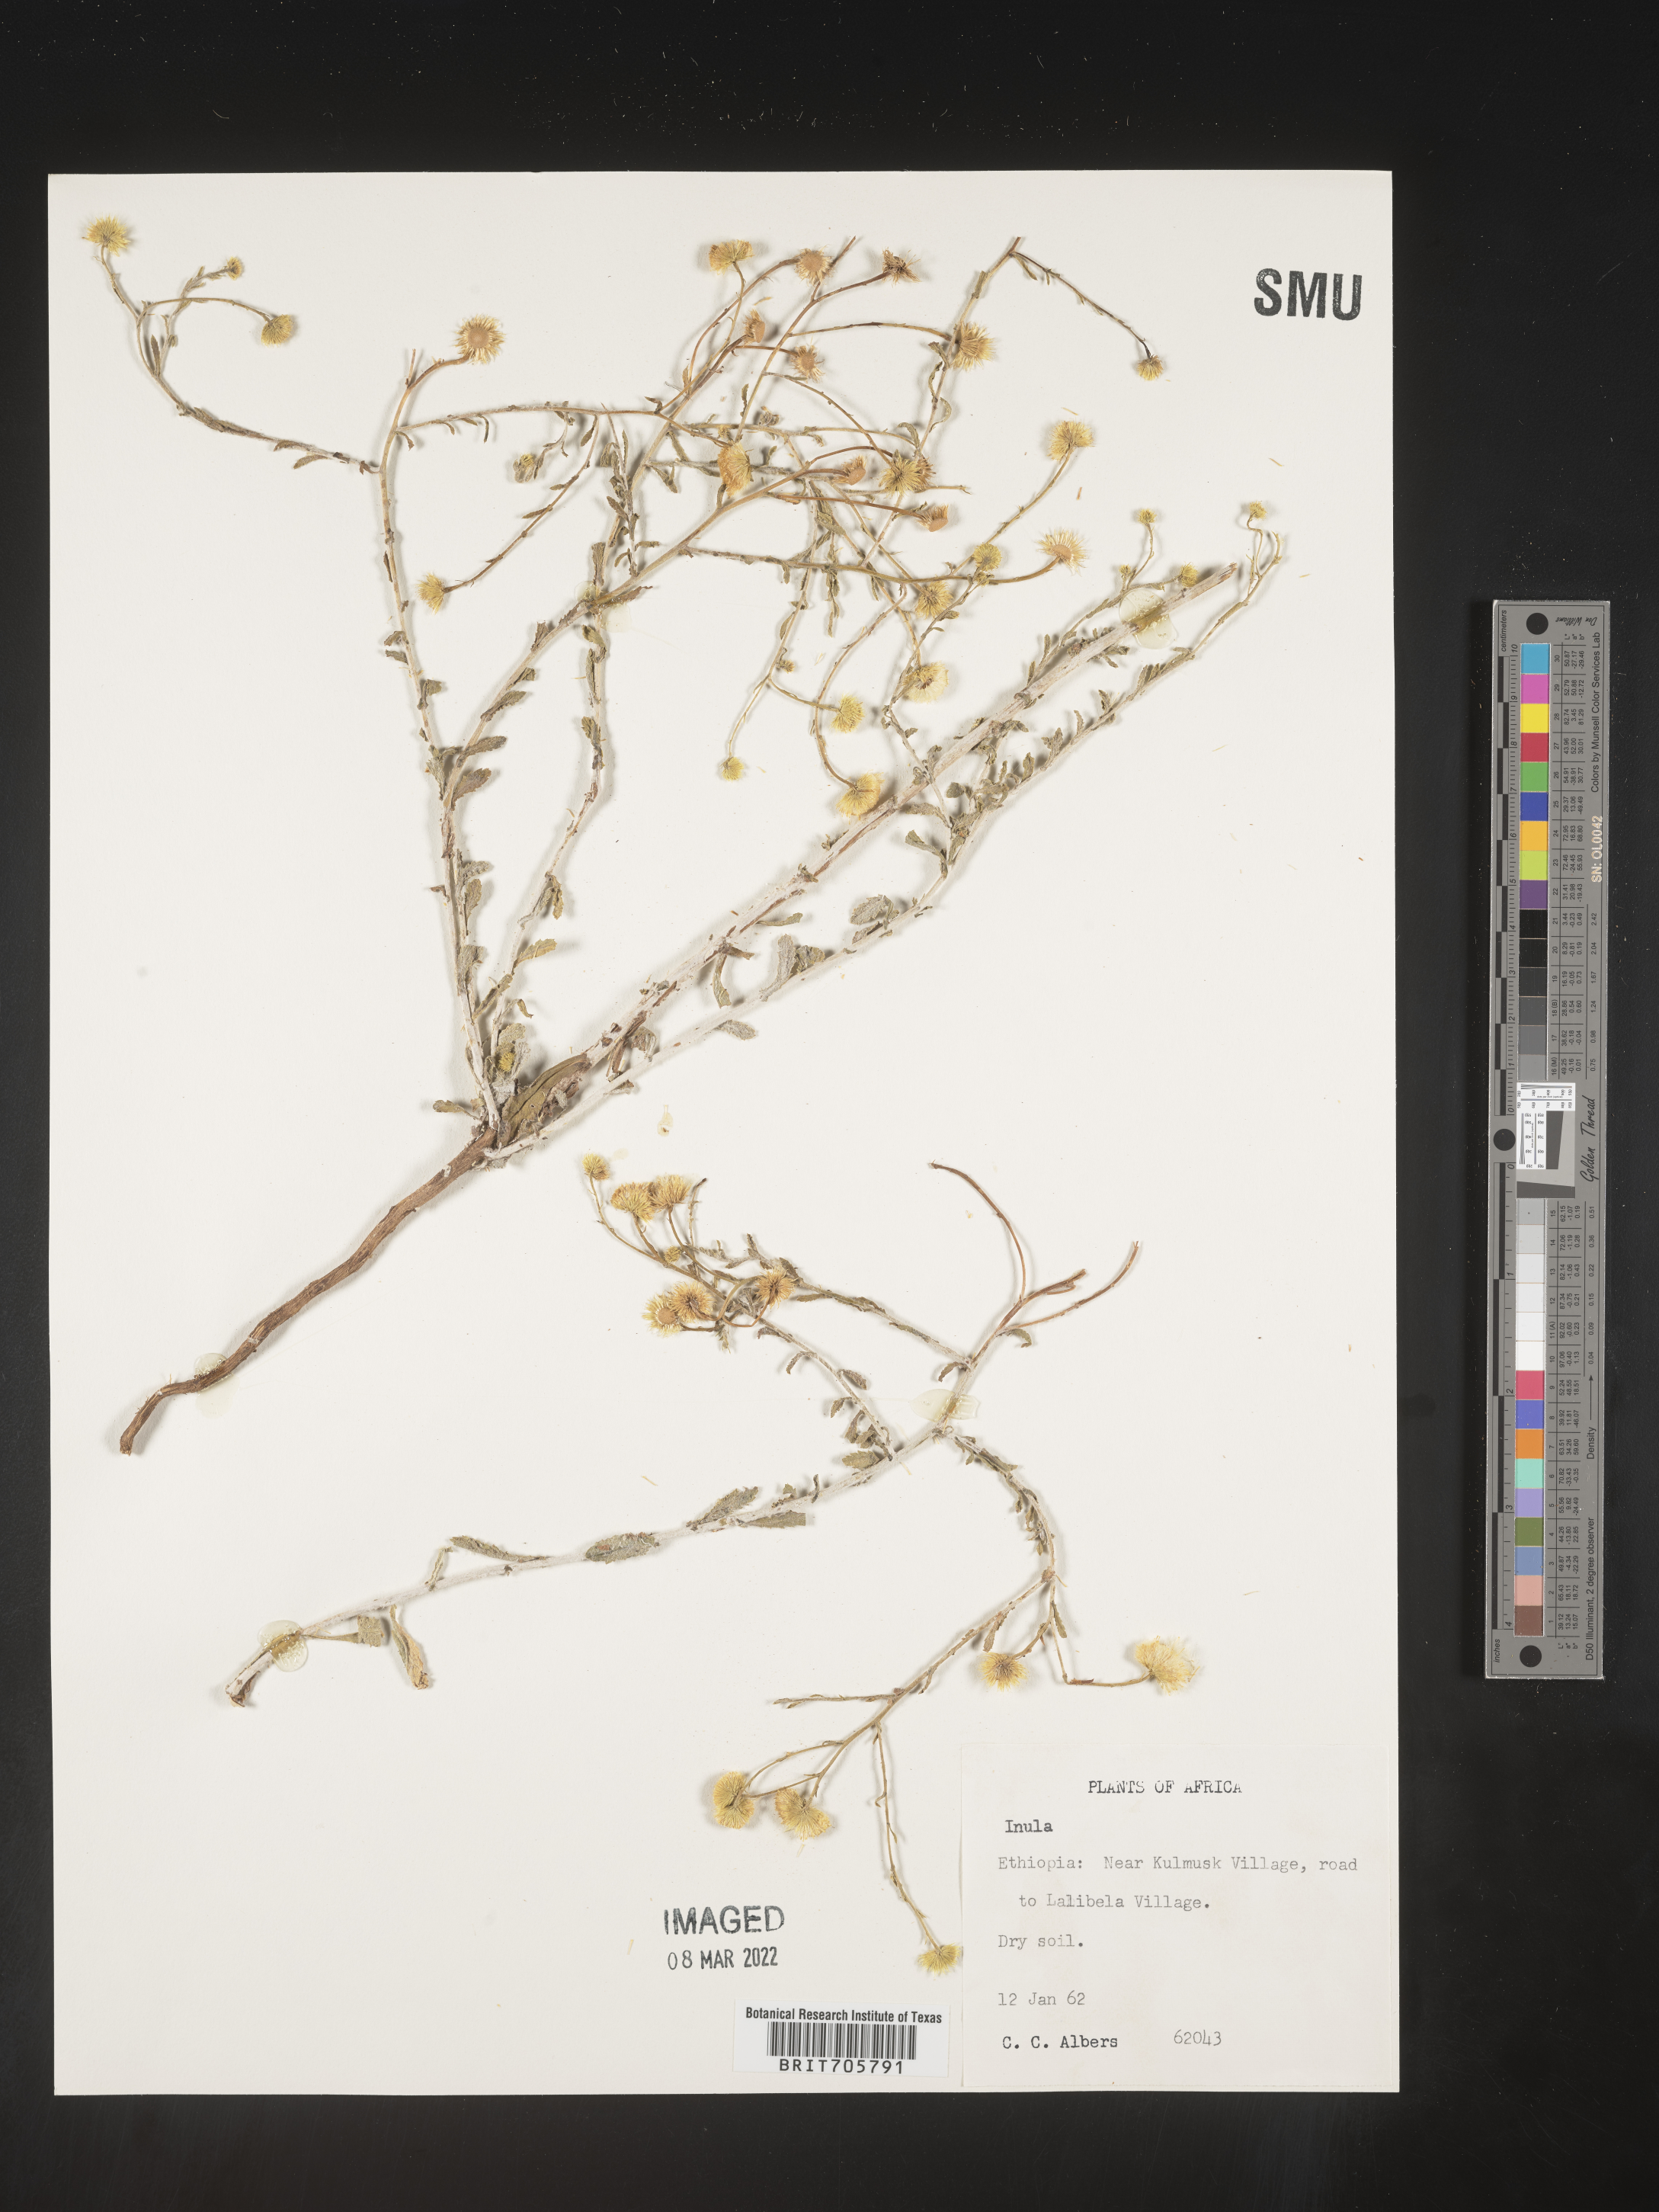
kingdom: Plantae
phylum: Tracheophyta
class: Magnoliopsida
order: Asterales
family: Asteraceae
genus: Pulicaria
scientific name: Pulicaria
